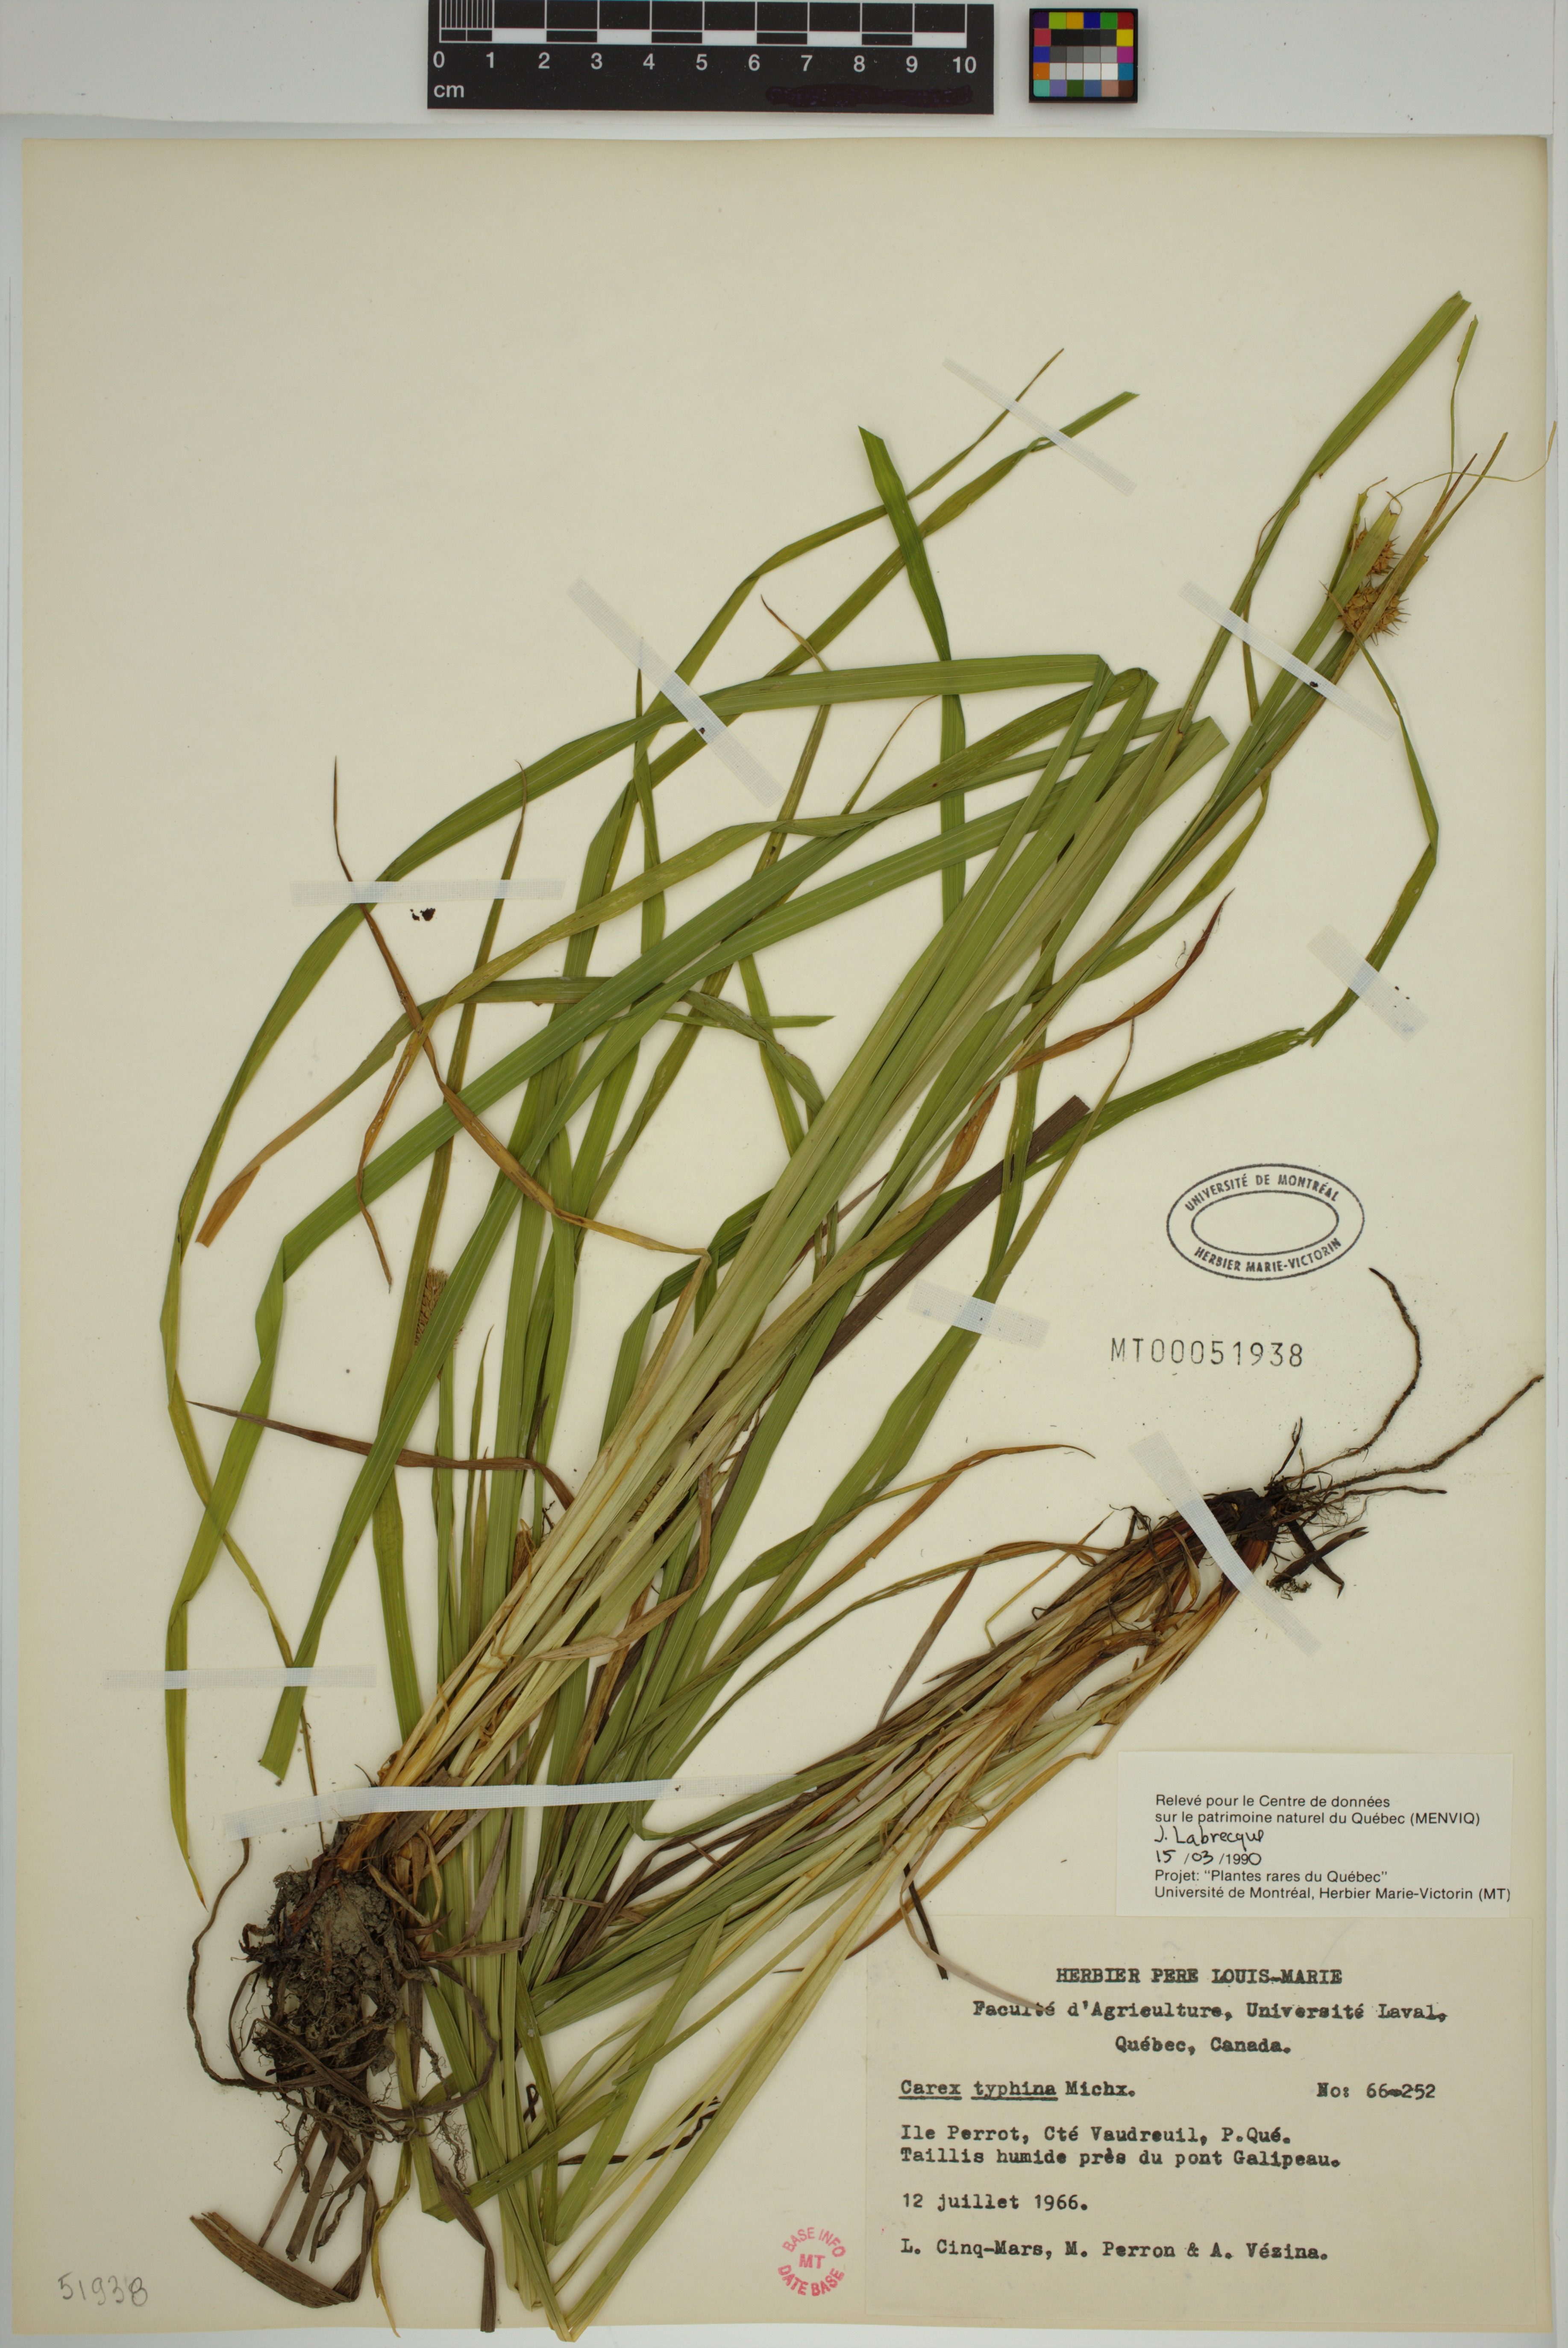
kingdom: Plantae
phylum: Tracheophyta
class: Liliopsida
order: Poales
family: Cyperaceae
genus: Carex
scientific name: Carex typhina
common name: Cattail sedge
